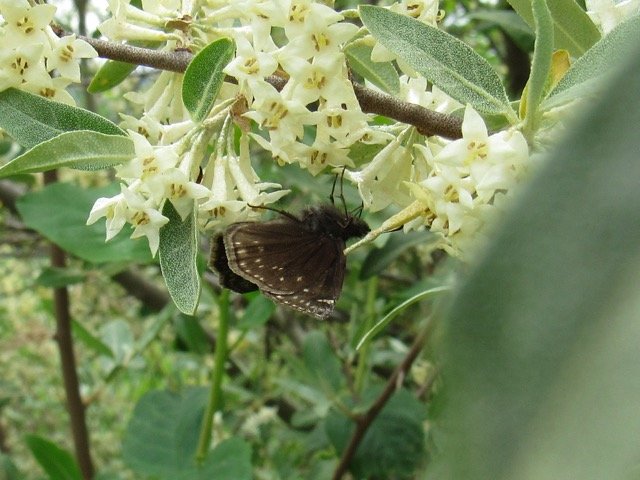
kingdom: Animalia
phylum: Arthropoda
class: Insecta
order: Lepidoptera
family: Hesperiidae
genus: Gesta
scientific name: Gesta
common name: Wild Indigo Duskywing
